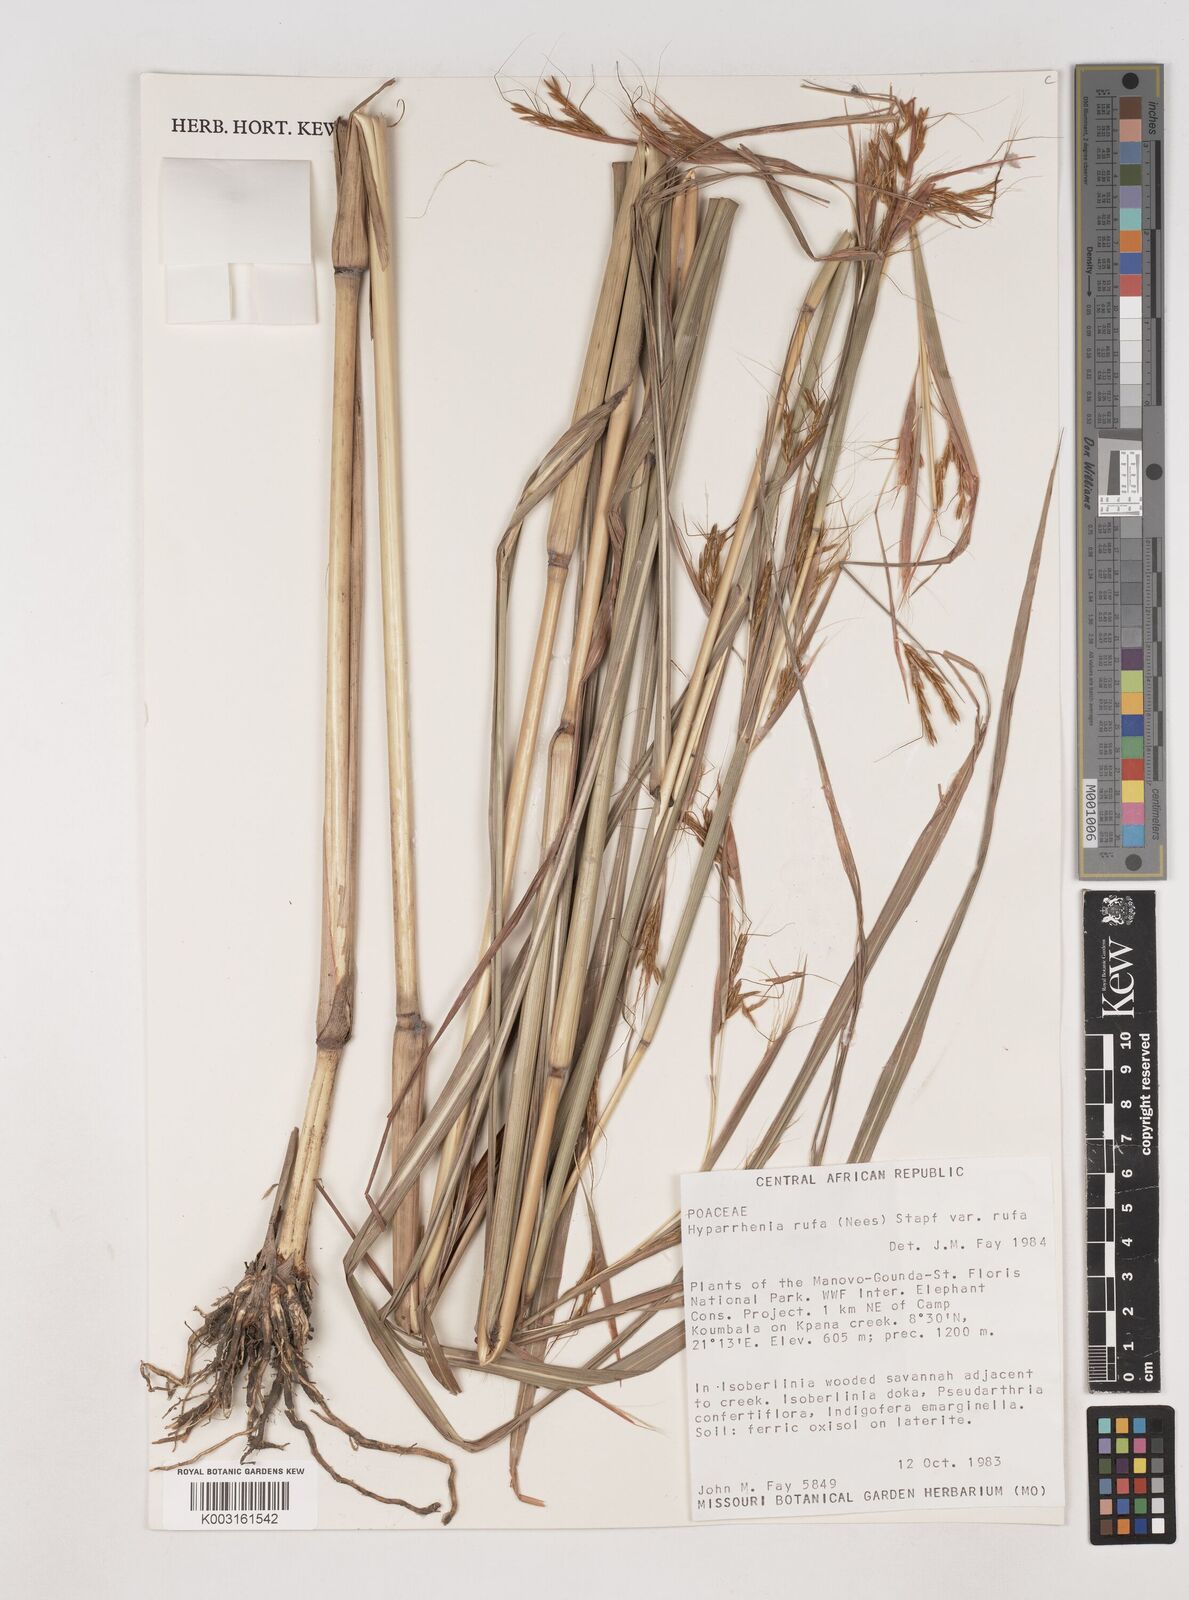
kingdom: Plantae
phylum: Tracheophyta
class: Liliopsida
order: Poales
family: Poaceae
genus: Hyparrhenia
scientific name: Hyparrhenia rufa
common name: Jaraguagrass
